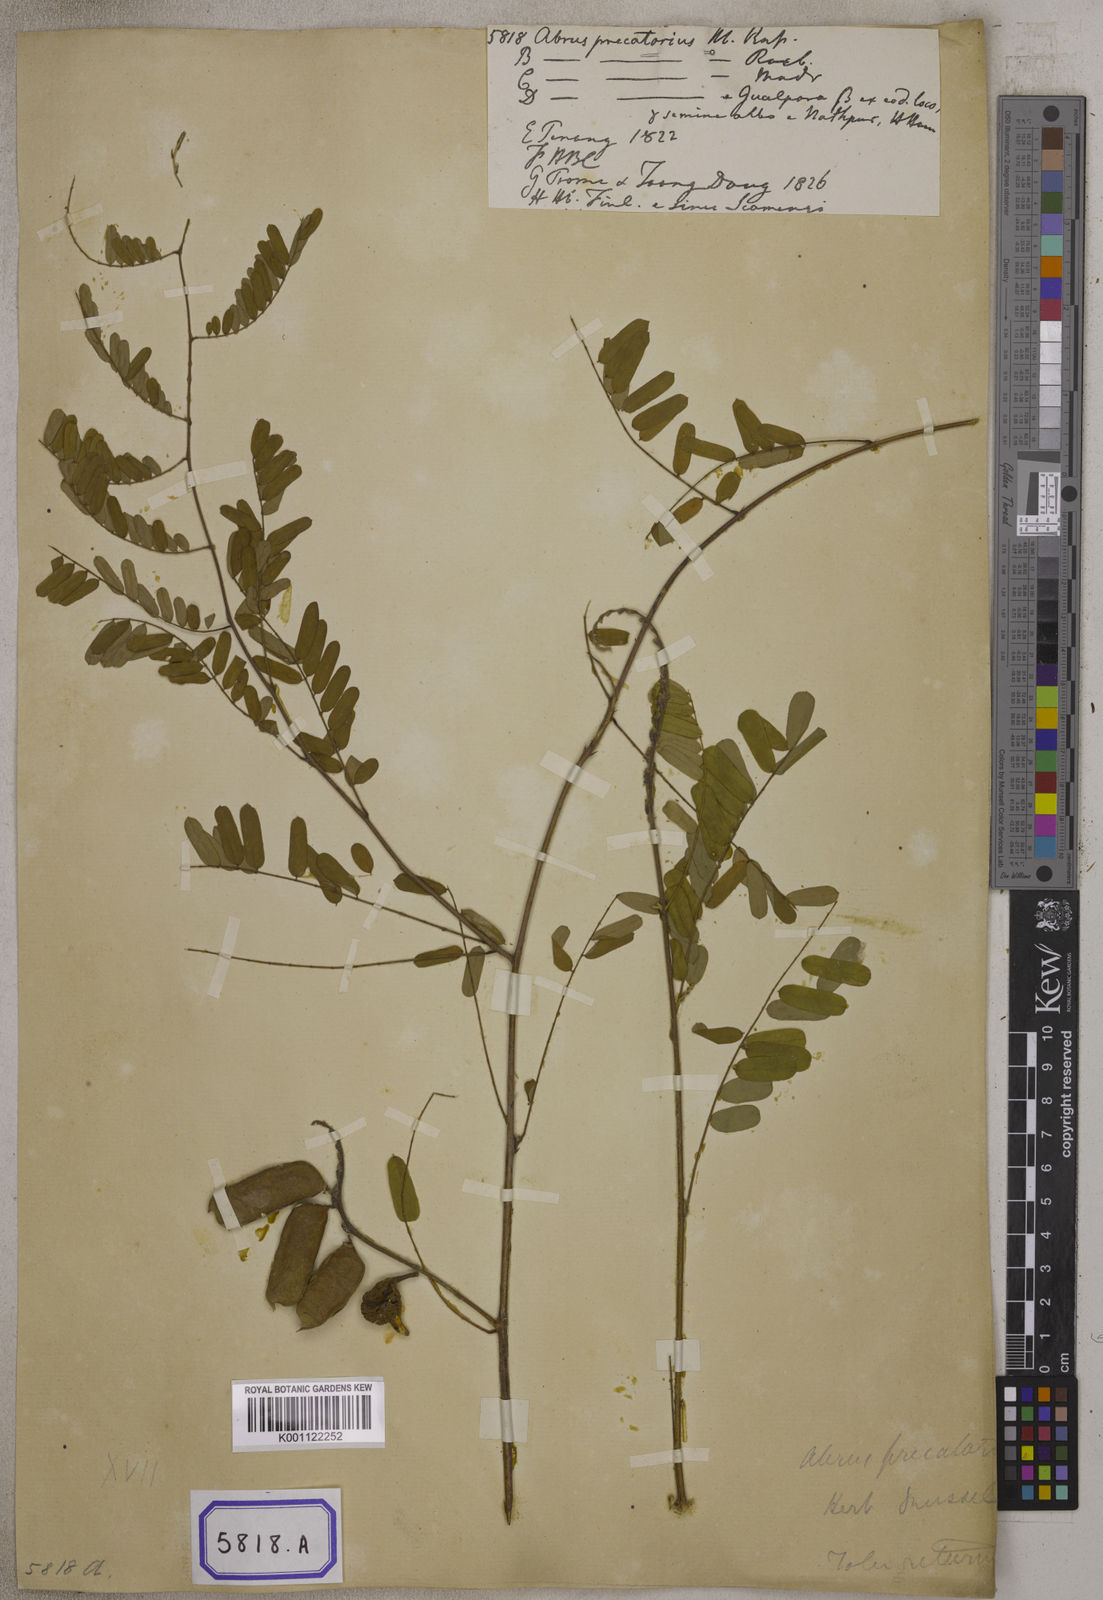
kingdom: Plantae
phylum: Tracheophyta
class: Magnoliopsida
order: Fabales
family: Fabaceae
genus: Abrus
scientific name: Abrus precatorius
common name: Rosarypea
